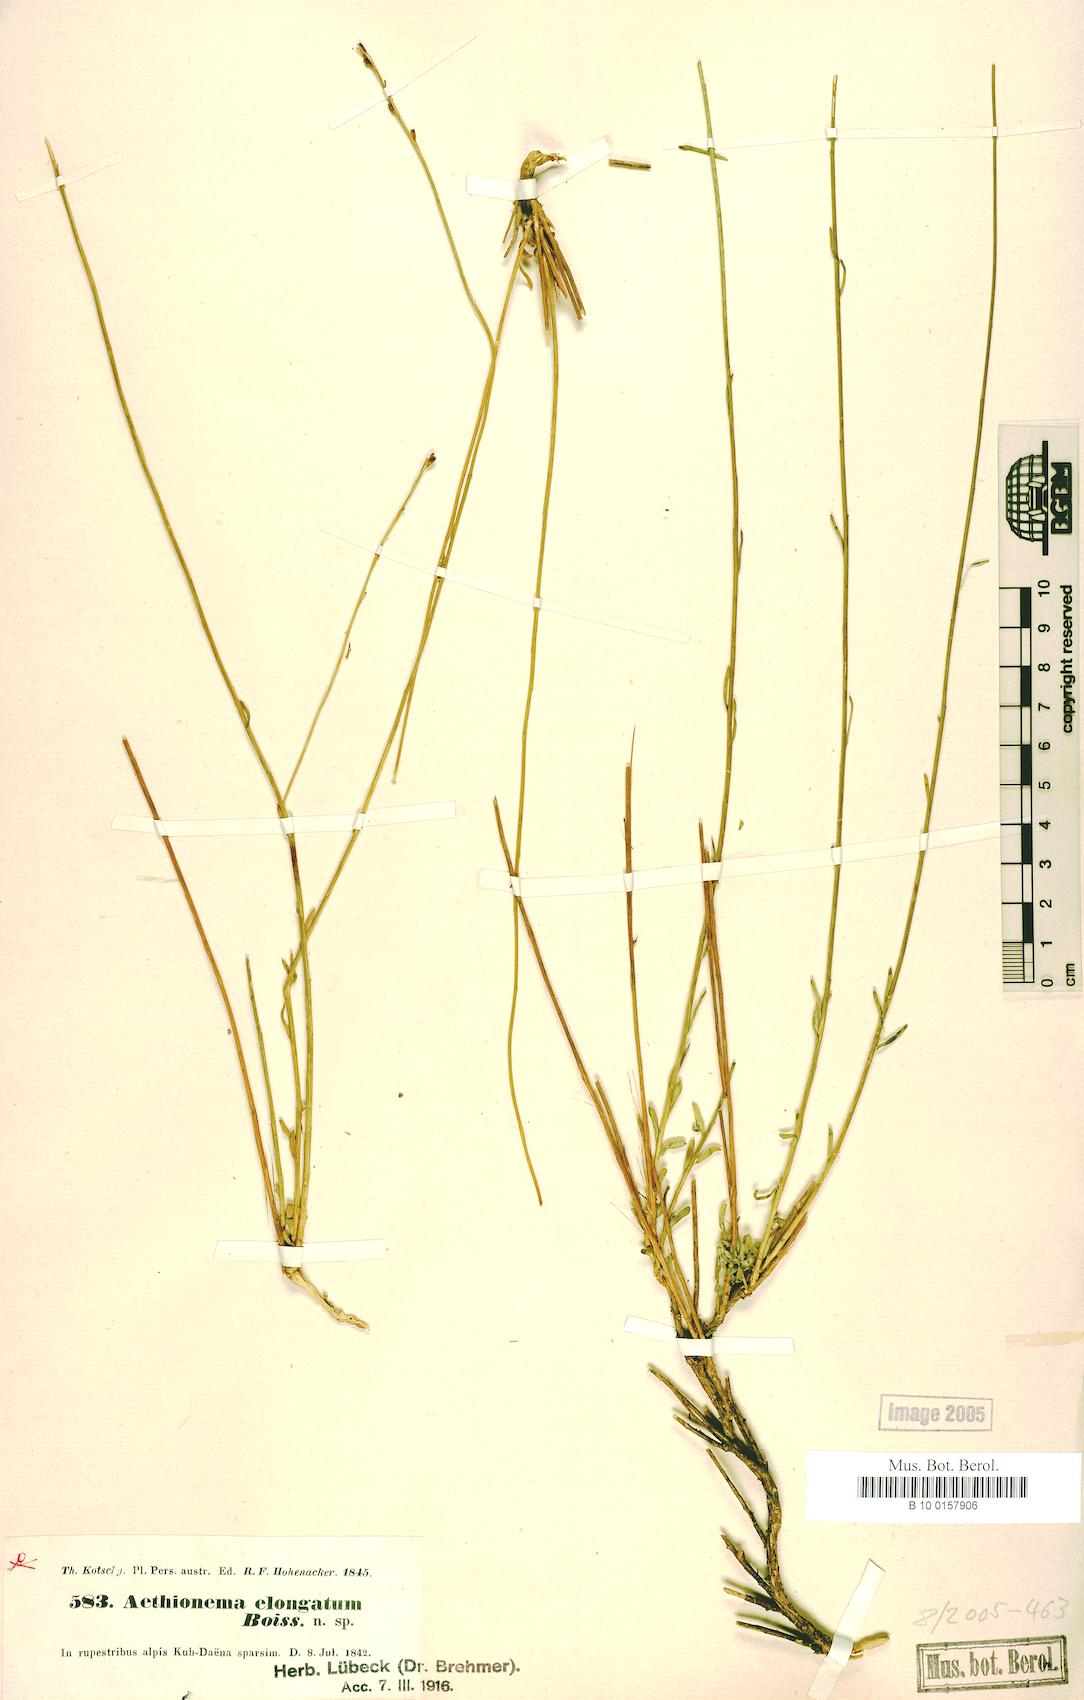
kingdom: Plantae
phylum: Tracheophyta
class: Magnoliopsida
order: Brassicales
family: Brassicaceae
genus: Aethionema
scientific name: Aethionema virgatum
